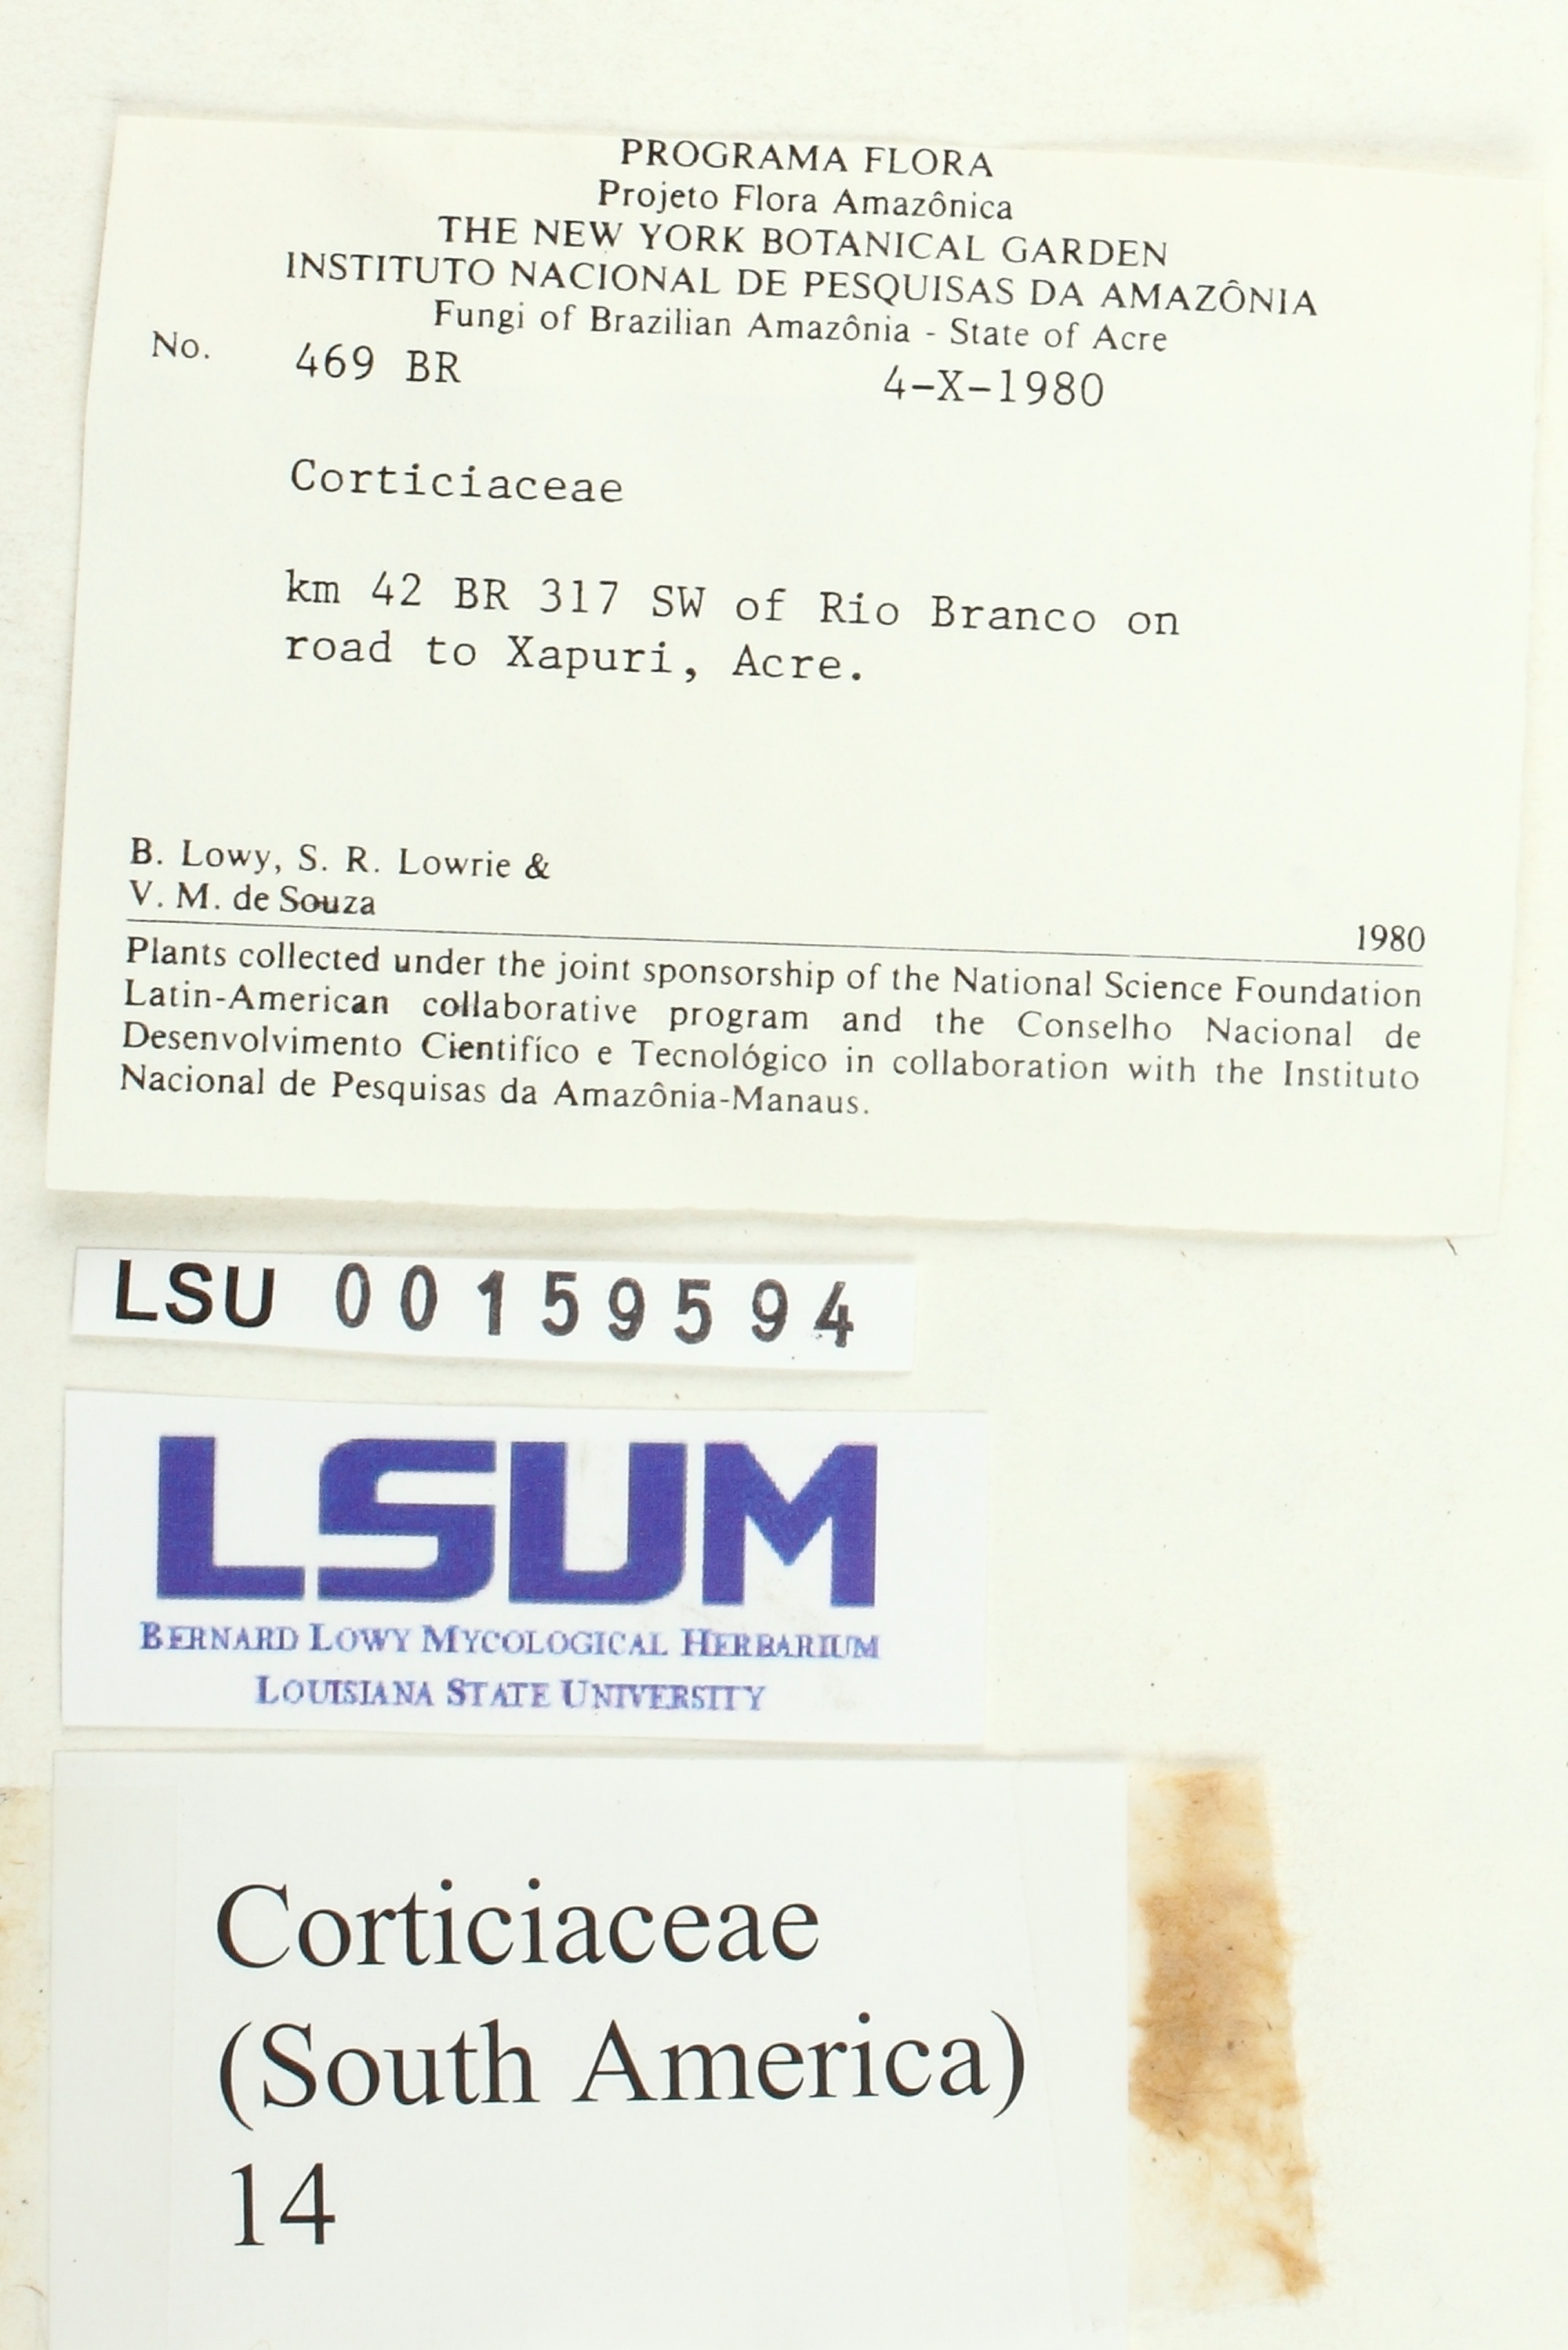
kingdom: Fungi
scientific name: Fungi
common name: Fungi
